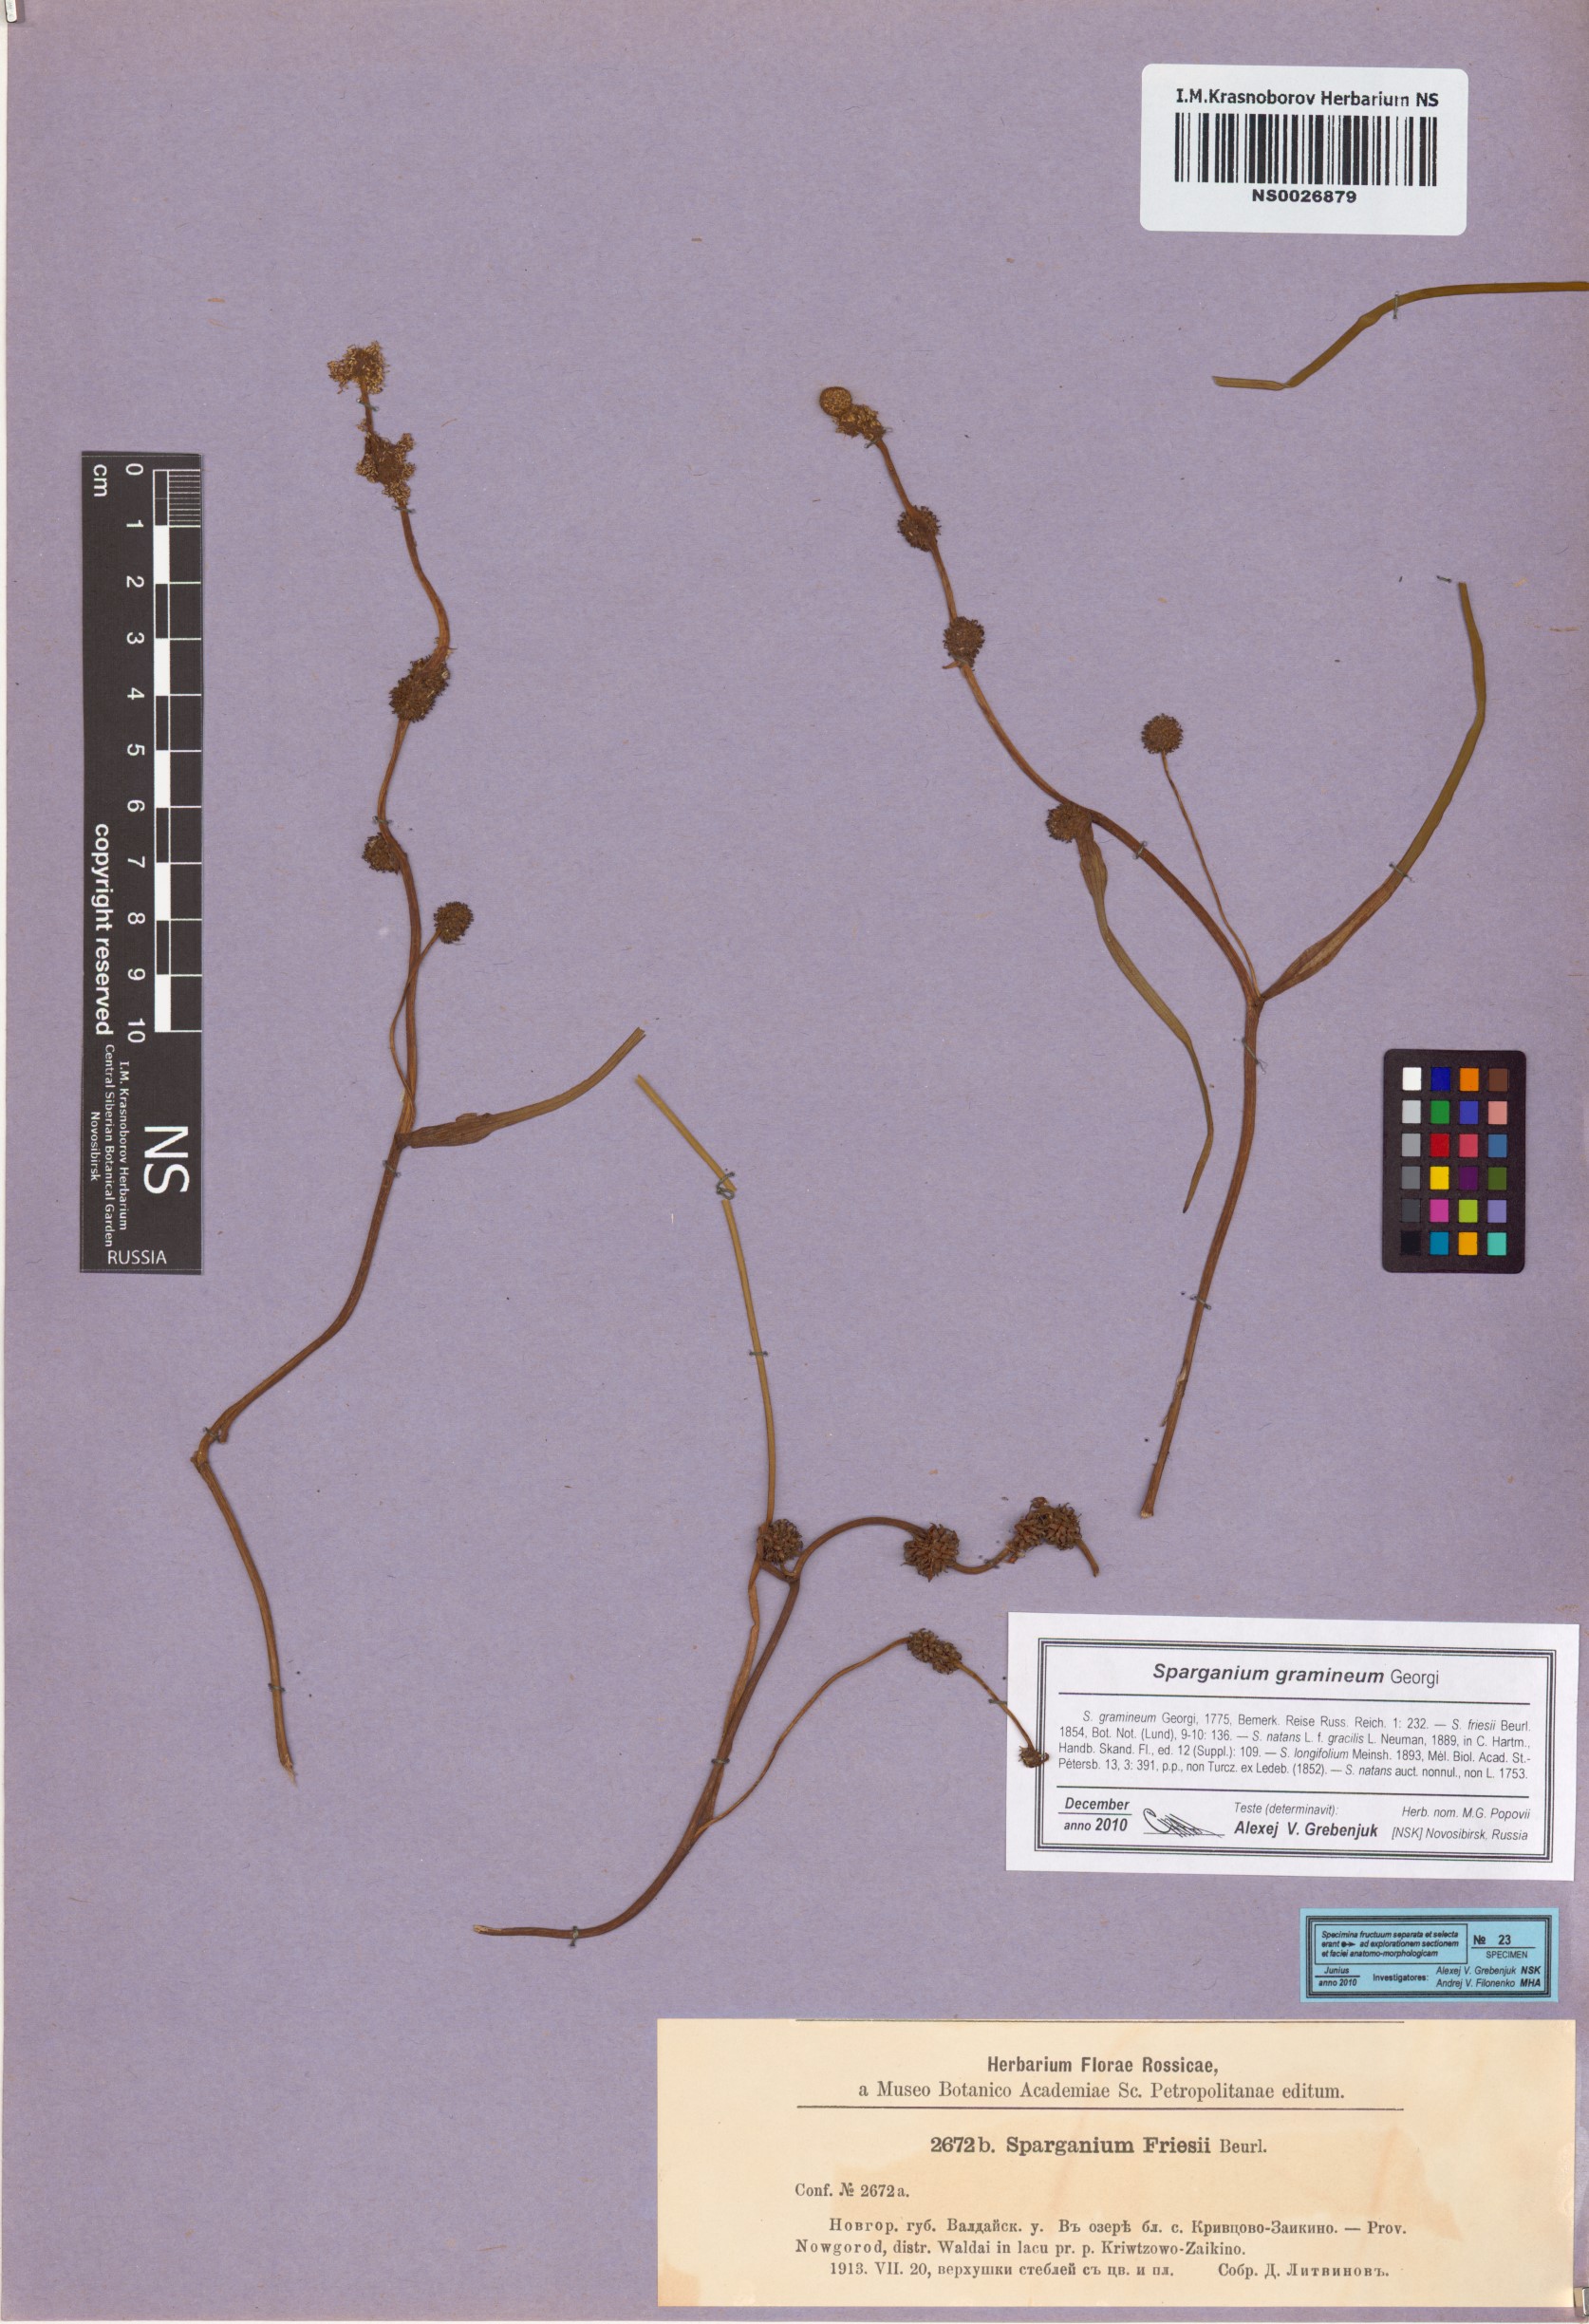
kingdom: Plantae
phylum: Tracheophyta
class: Liliopsida
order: Poales
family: Typhaceae
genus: Sparganium
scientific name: Sparganium gramineum
